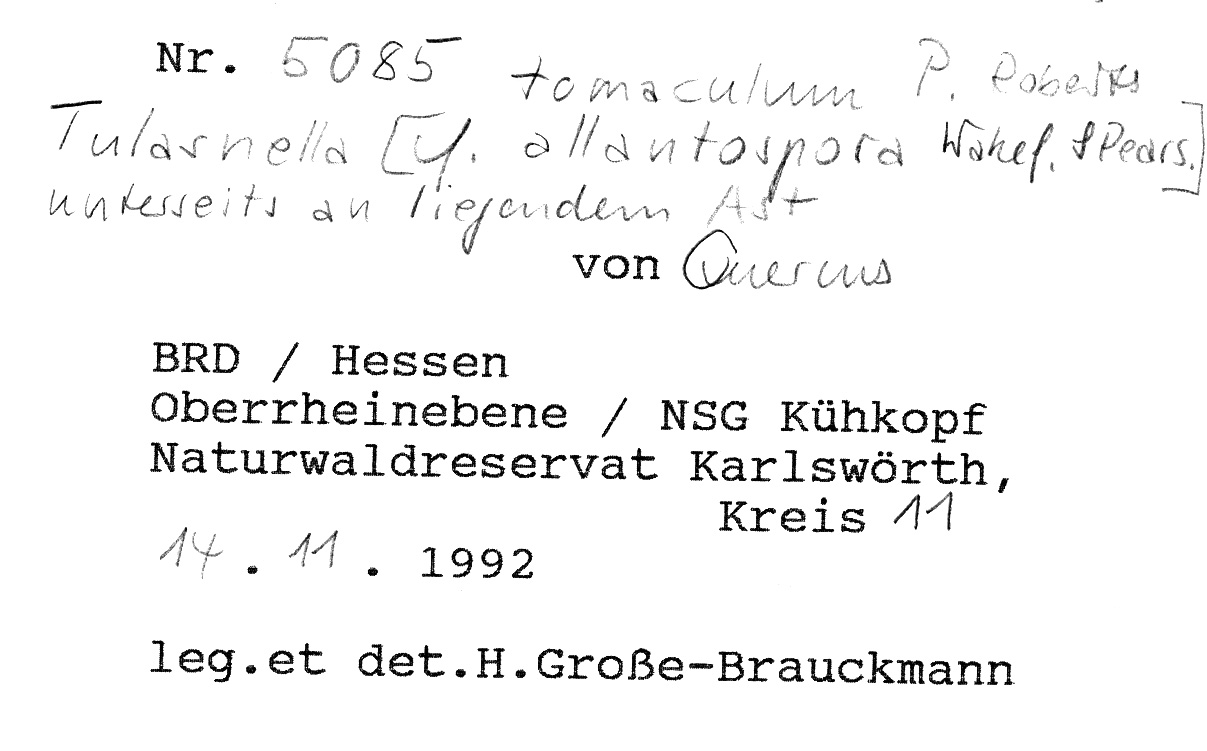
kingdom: Plantae
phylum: Tracheophyta
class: Magnoliopsida
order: Fagales
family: Fagaceae
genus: Quercus
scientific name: Quercus
